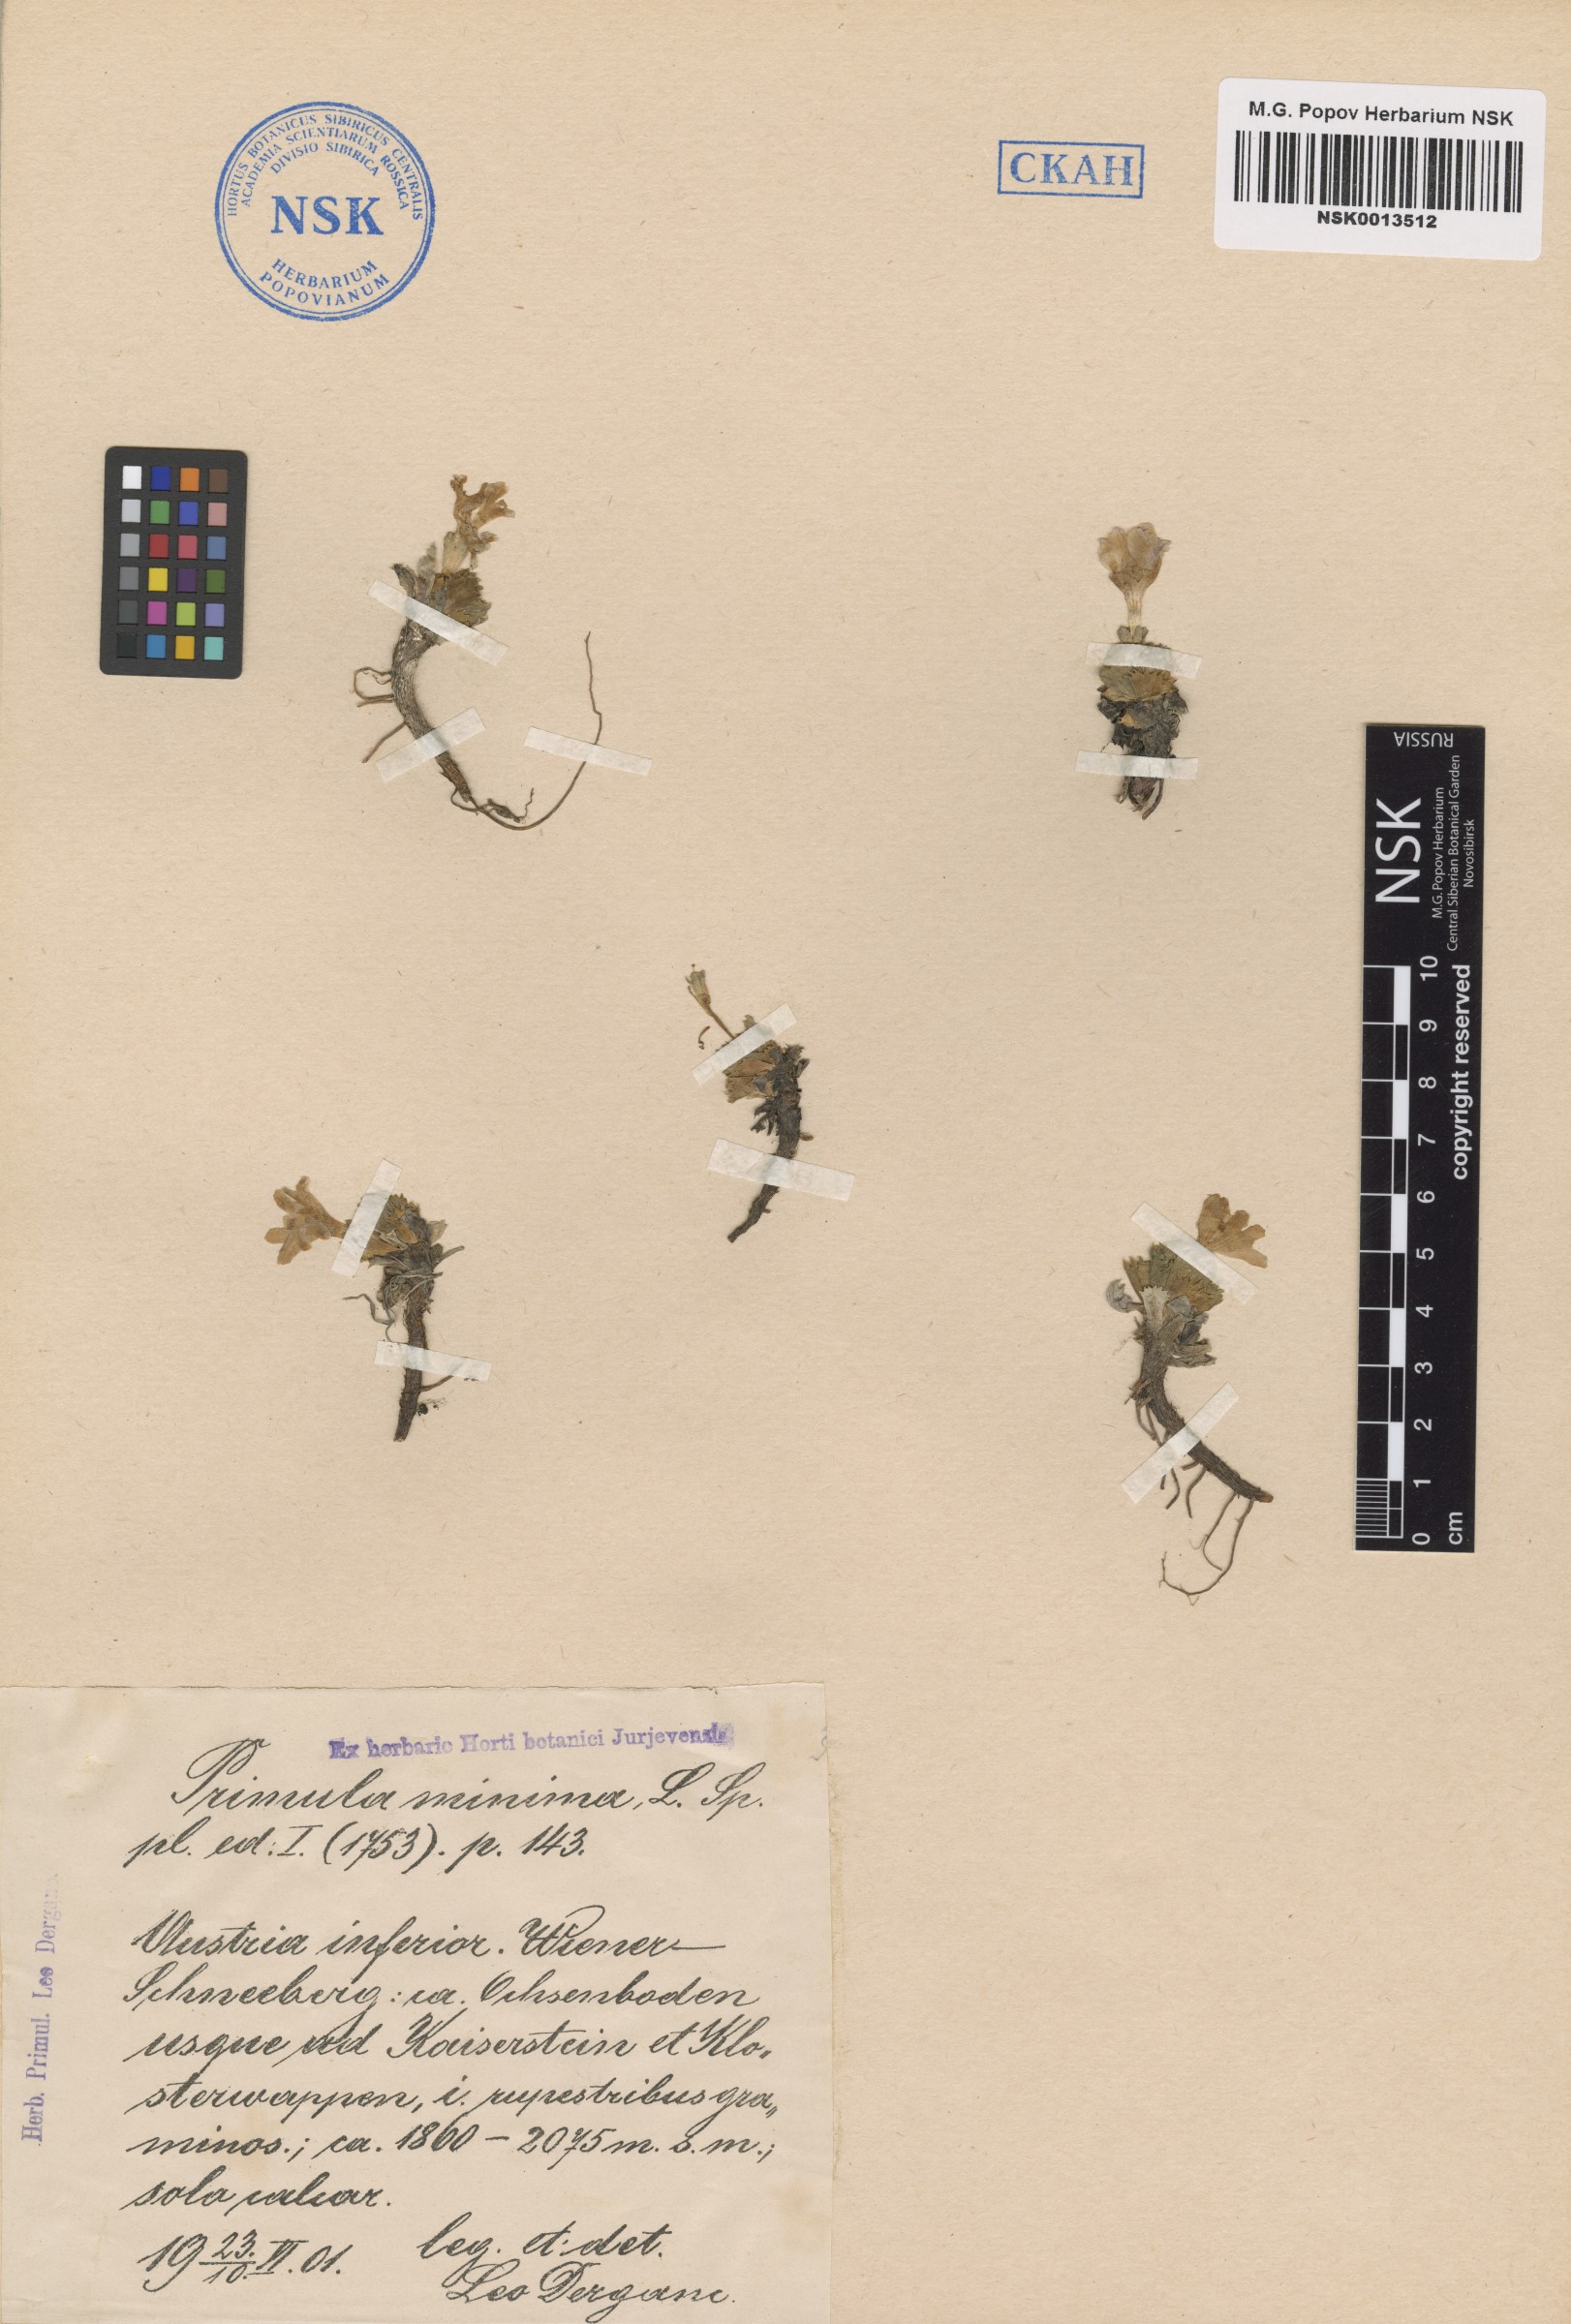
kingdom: Plantae
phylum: Tracheophyta
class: Magnoliopsida
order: Ericales
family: Primulaceae
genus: Primula
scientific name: Primula minima
